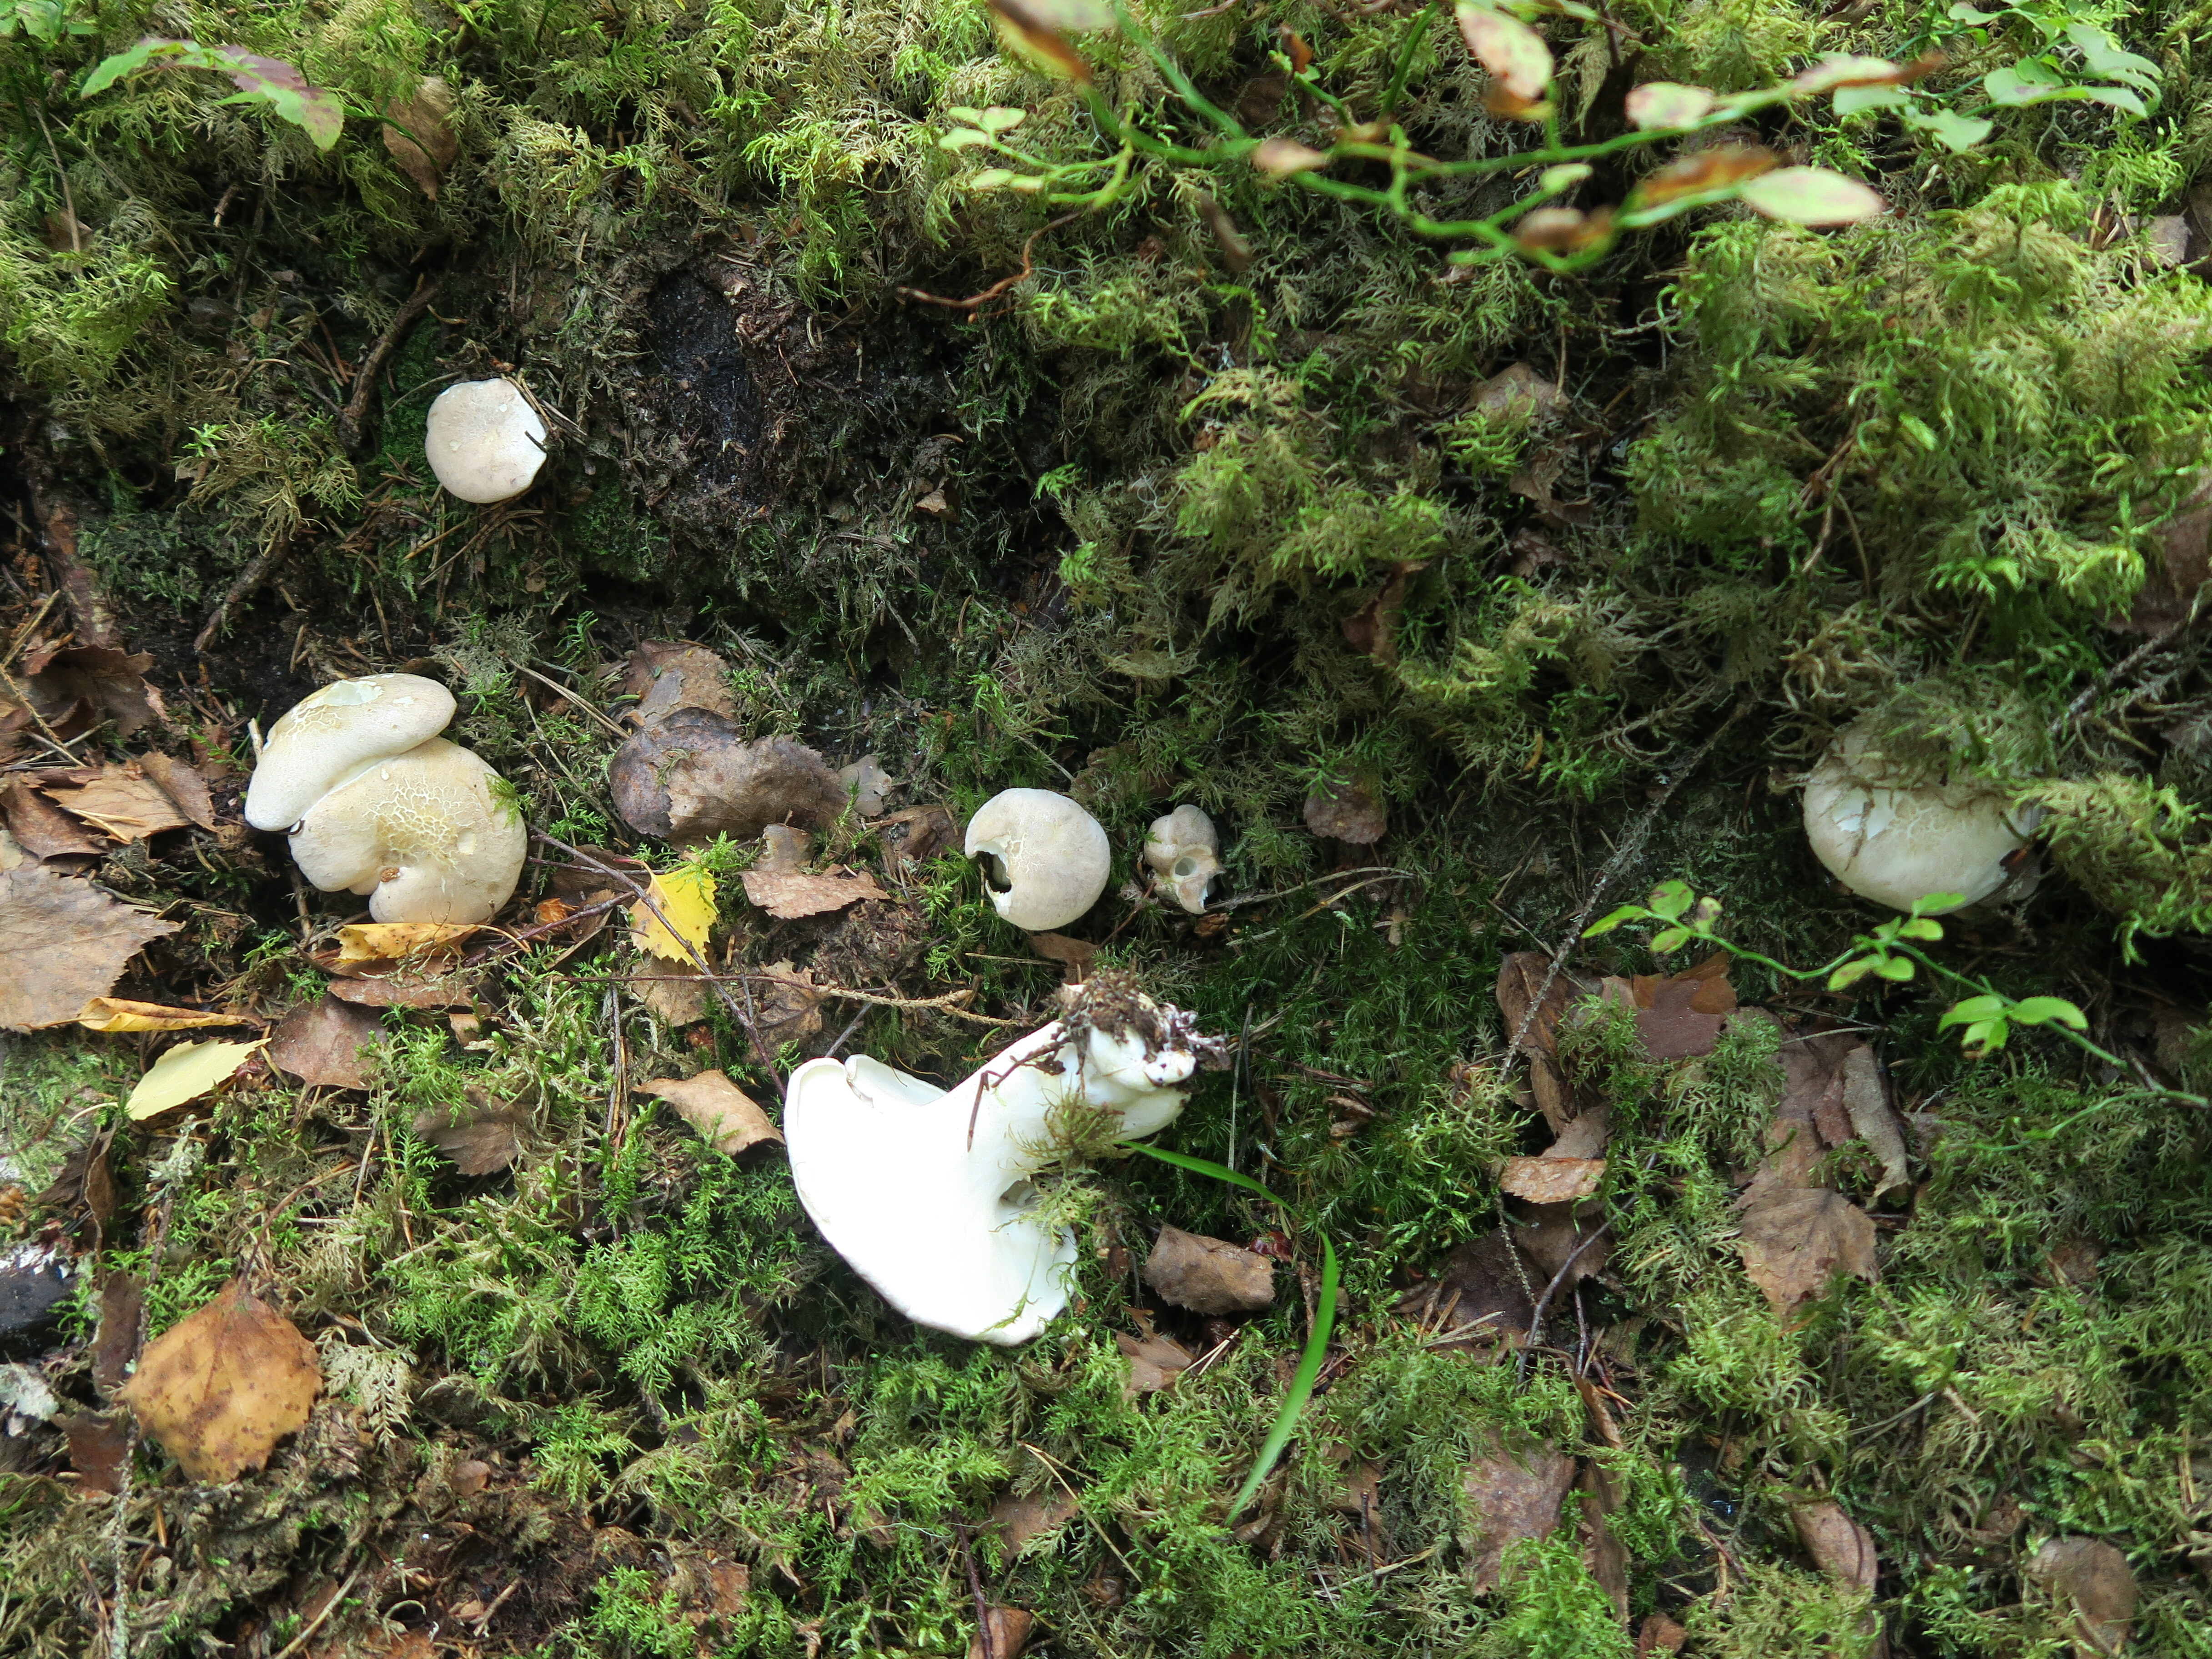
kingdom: Fungi
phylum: Basidiomycota
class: Agaricomycetes
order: Russulales
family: Albatrellaceae
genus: Albatrellus
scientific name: Albatrellus ovinus
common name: Forest lamb
